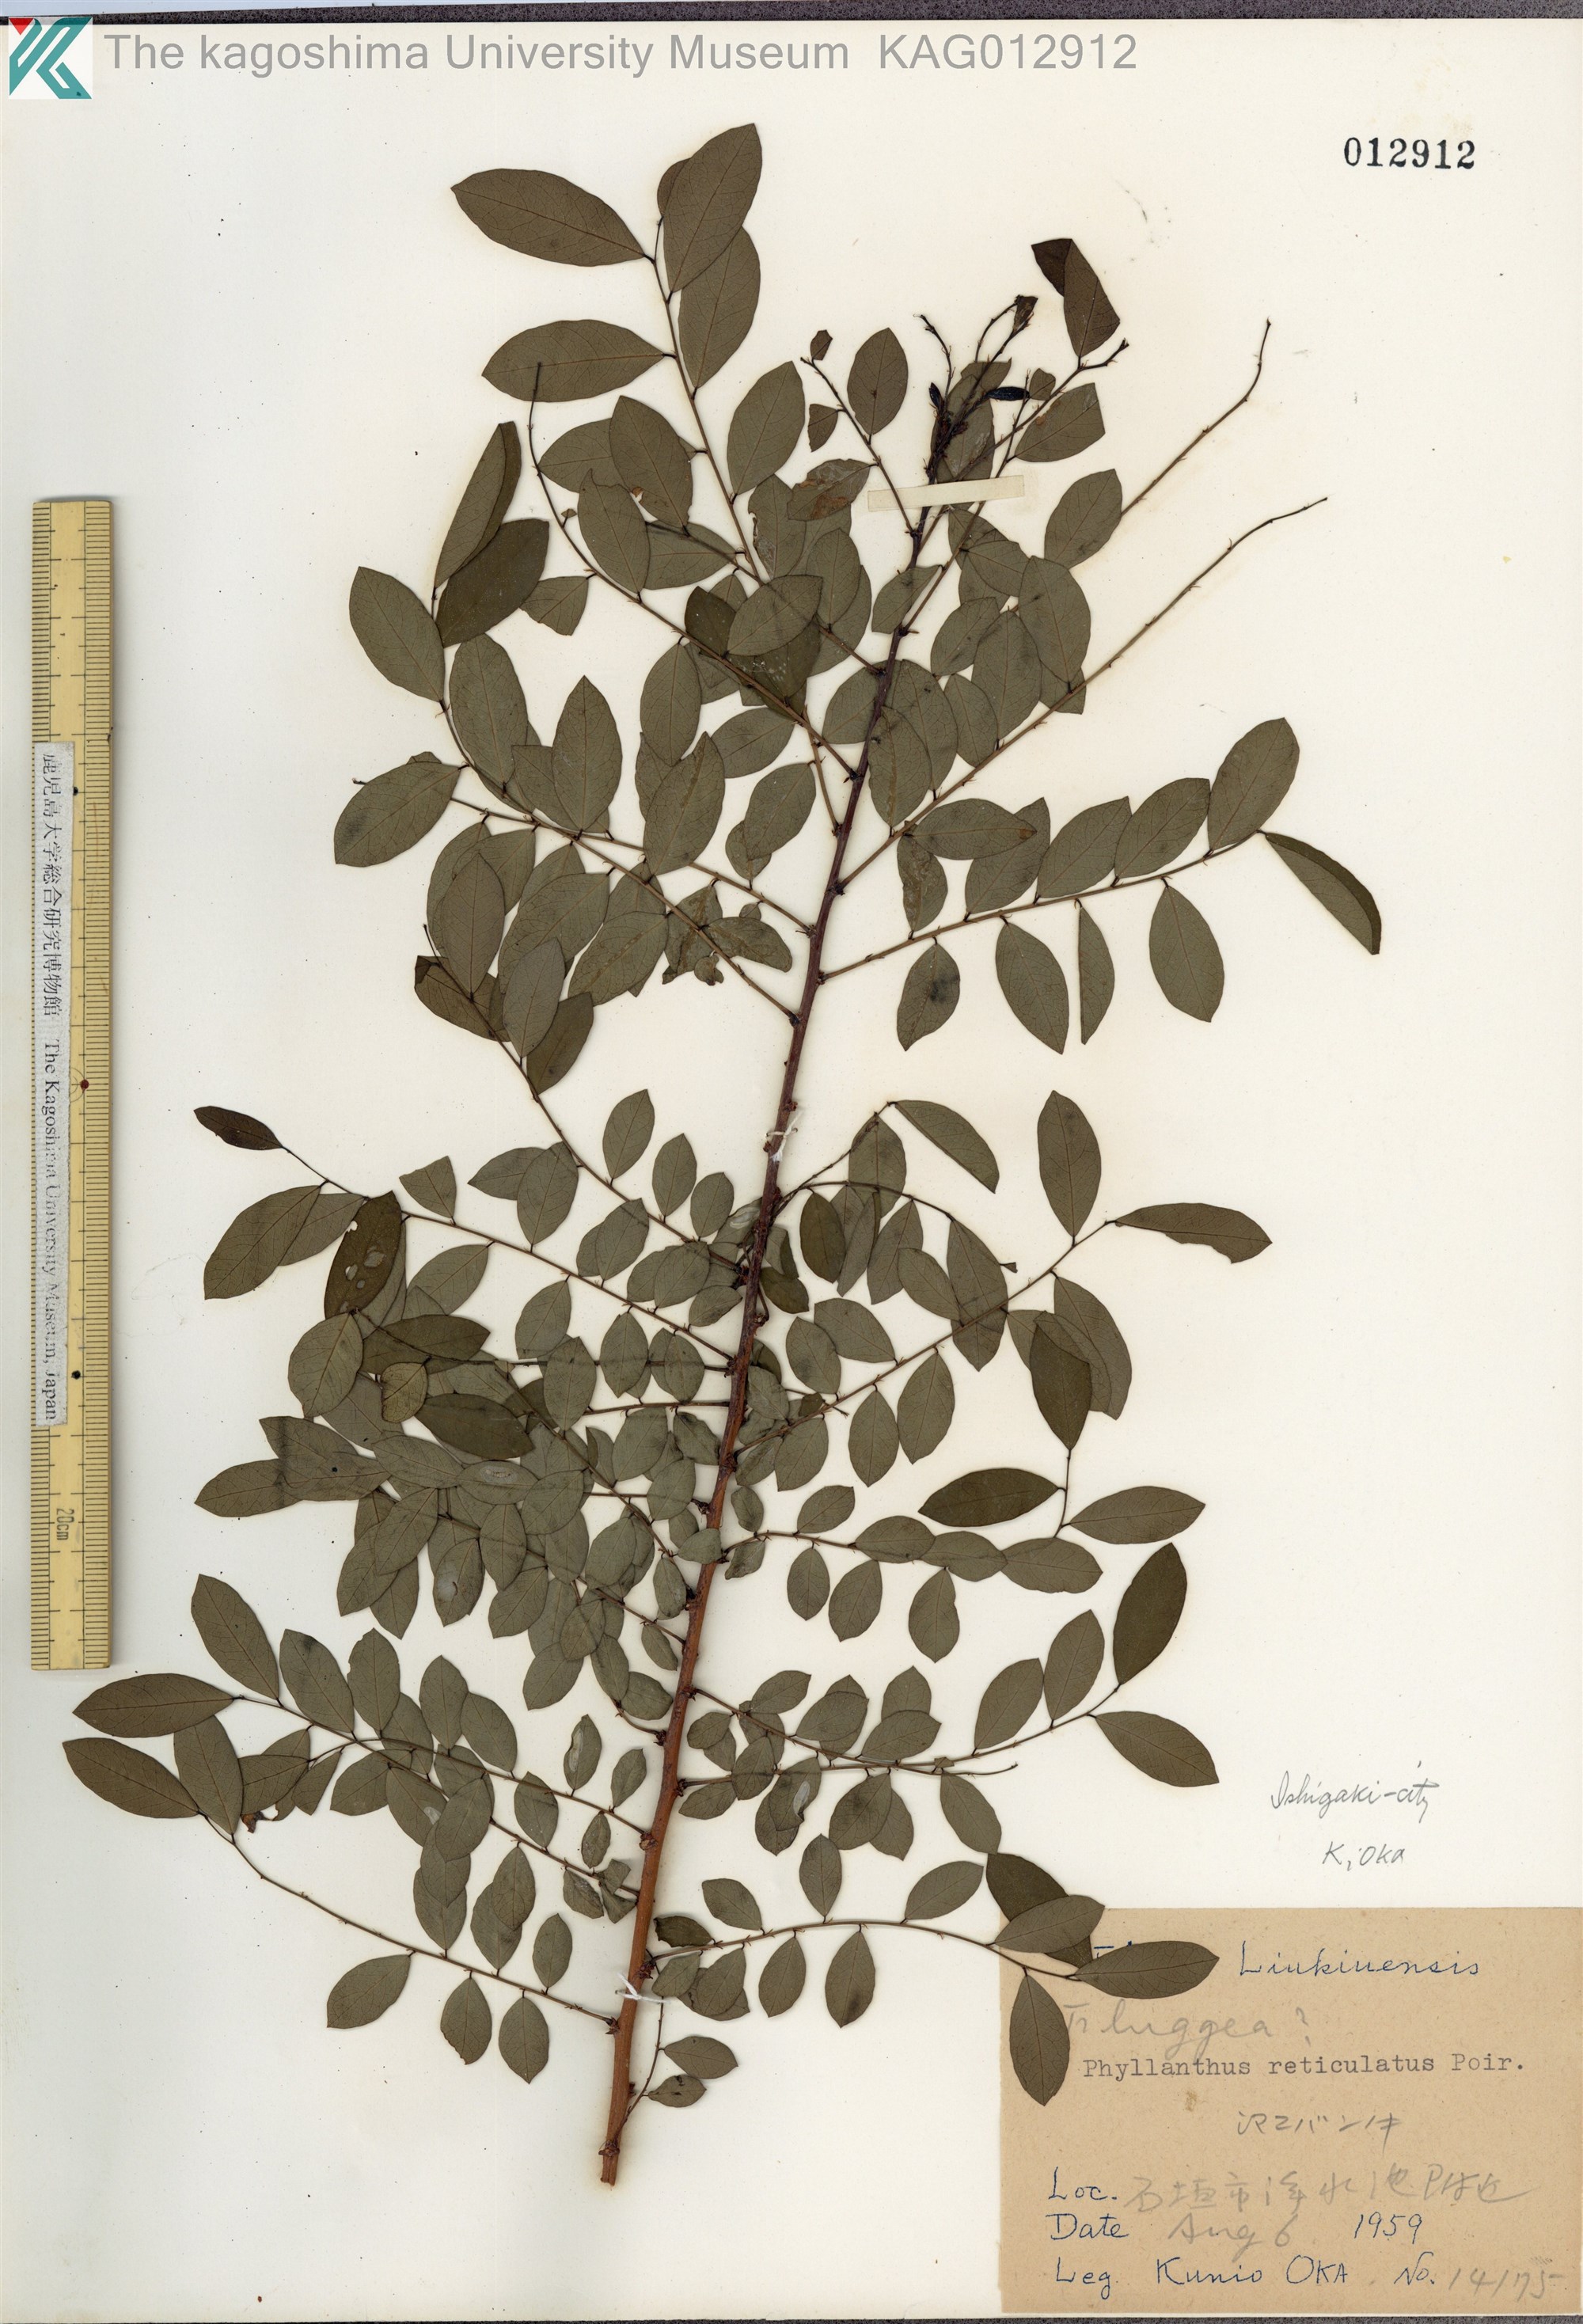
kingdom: Plantae
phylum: Tracheophyta
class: Magnoliopsida
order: Malpighiales
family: Phyllanthaceae
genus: Phyllanthus
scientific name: Phyllanthus reticulatus
